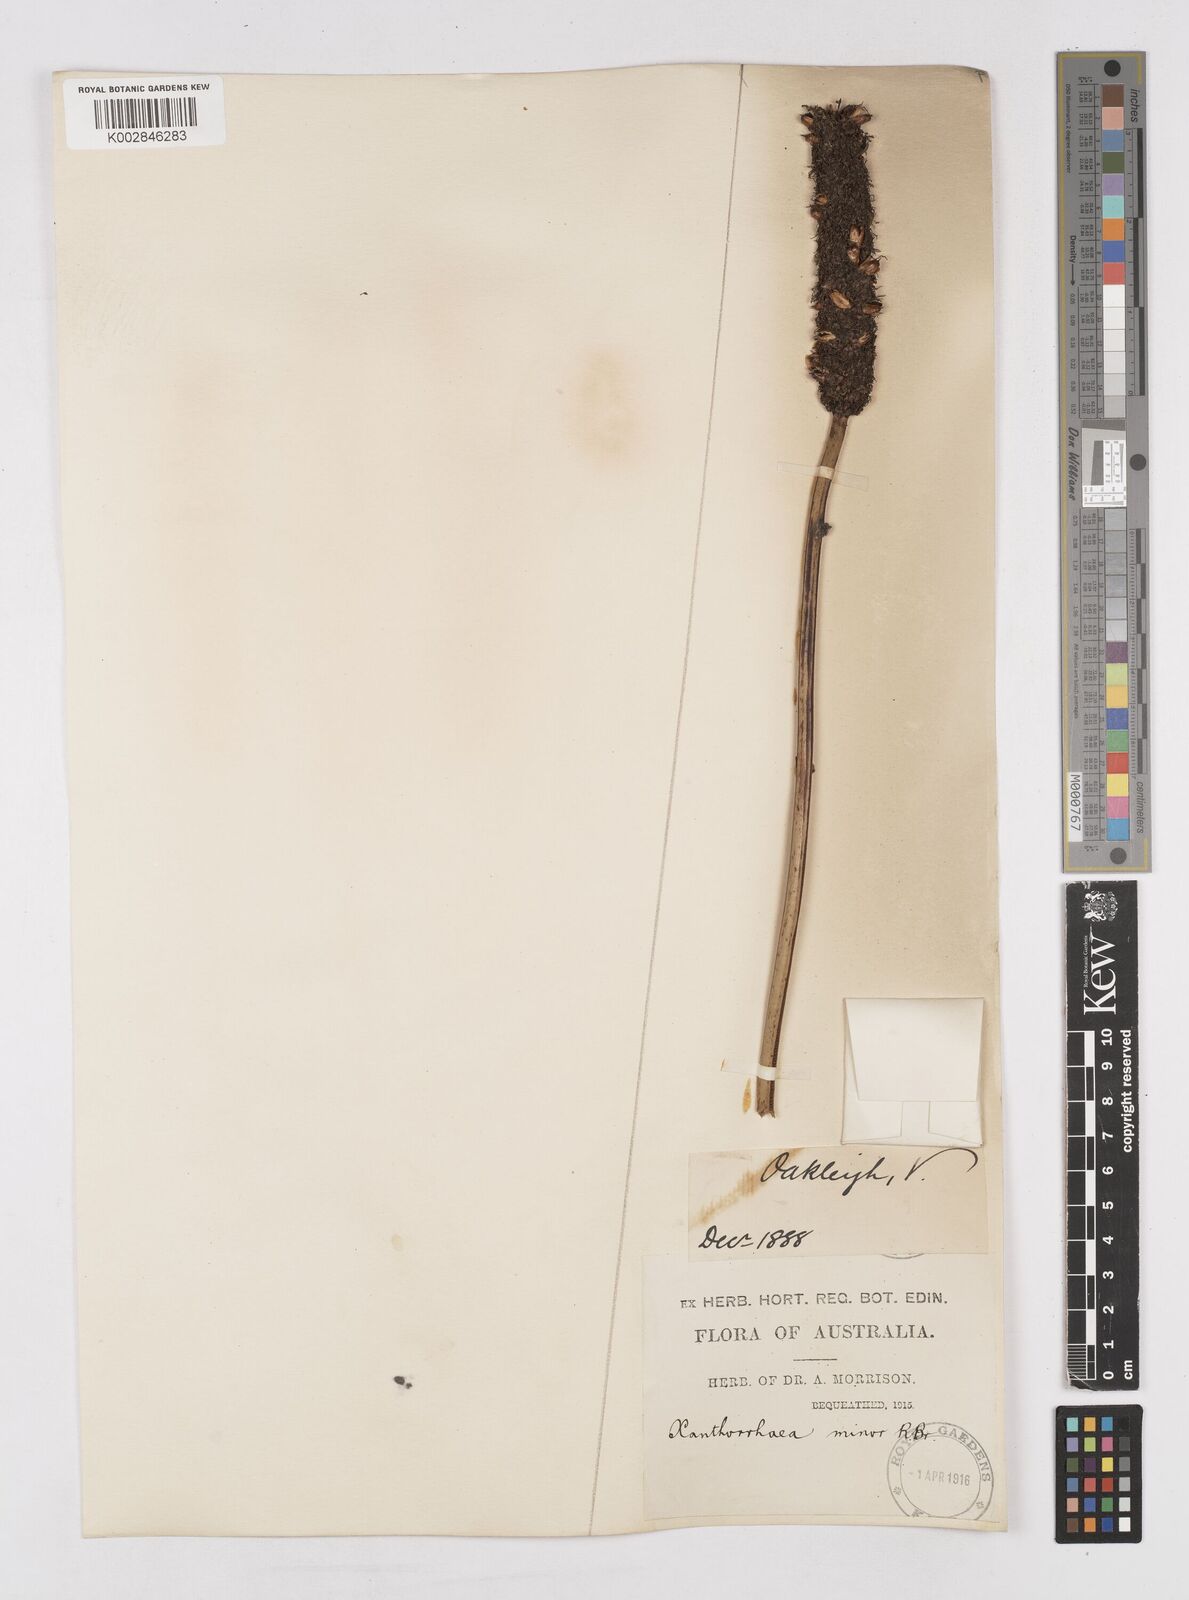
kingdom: Plantae
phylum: Tracheophyta
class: Liliopsida
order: Asparagales
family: Asphodelaceae
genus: Xanthorrhoea
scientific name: Xanthorrhoea minor
